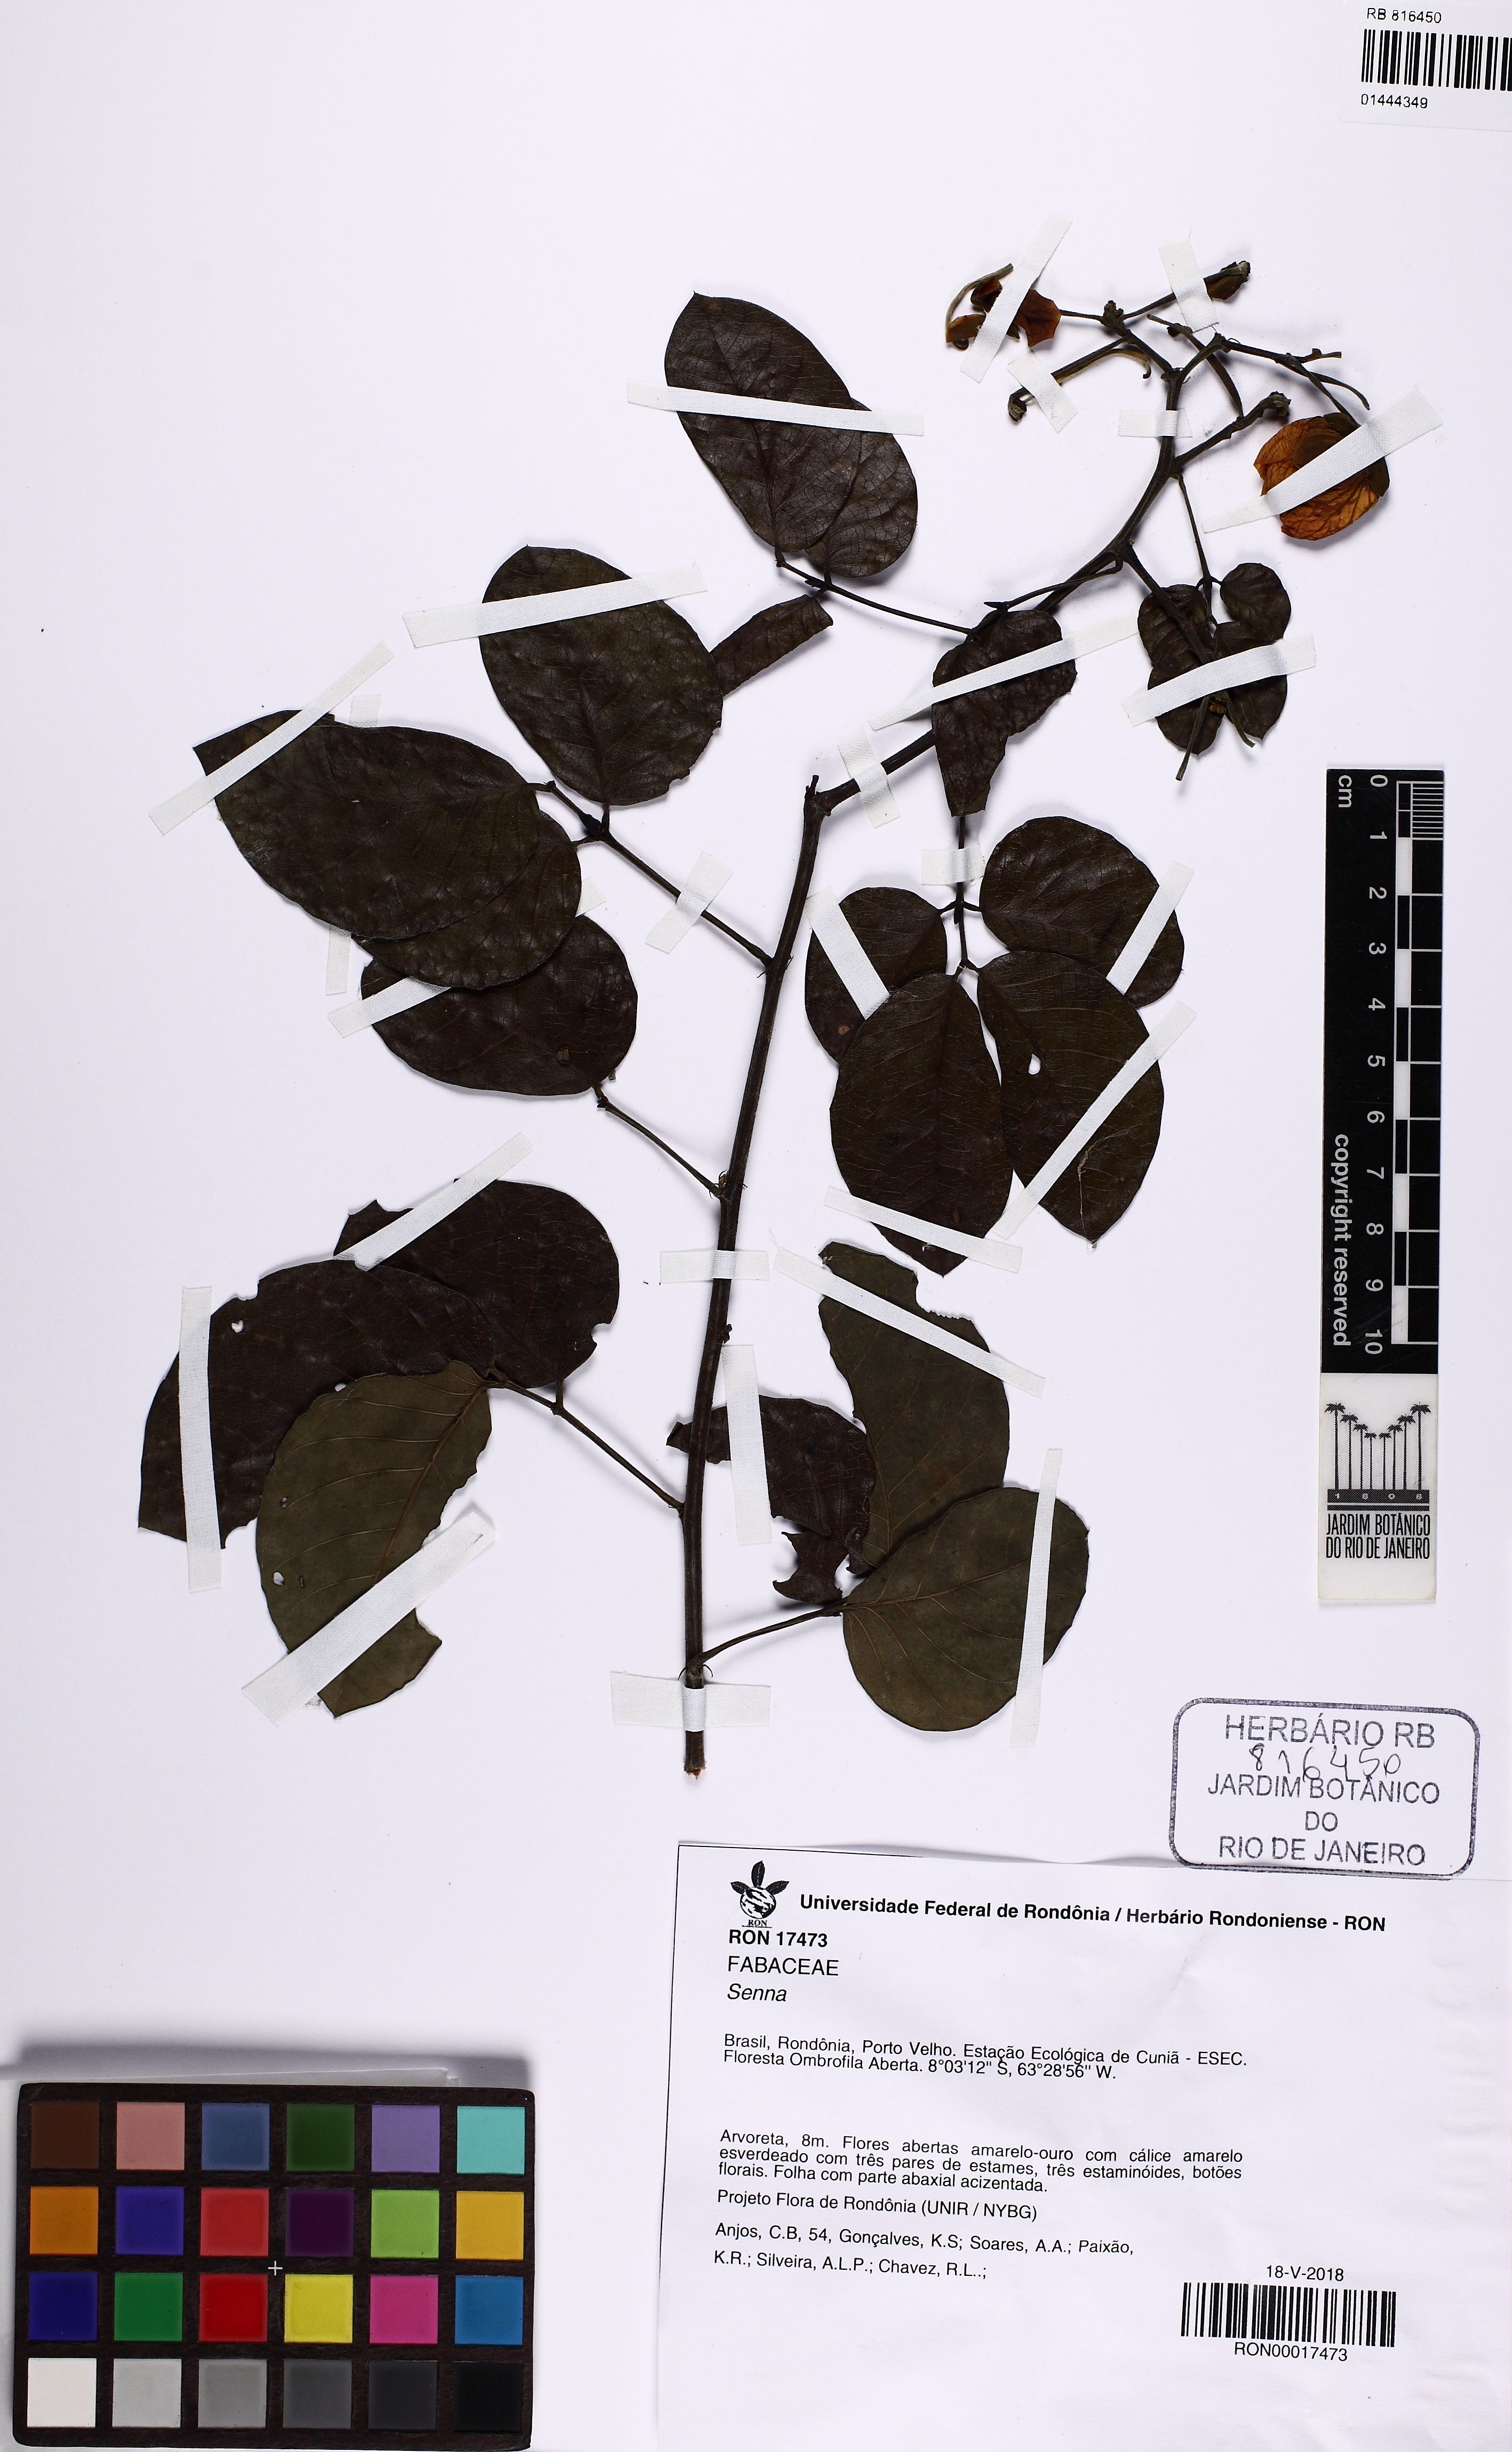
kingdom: Plantae
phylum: Tracheophyta
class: Magnoliopsida
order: Fabales
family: Fabaceae
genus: Senna
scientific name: Senna tapajozensis
